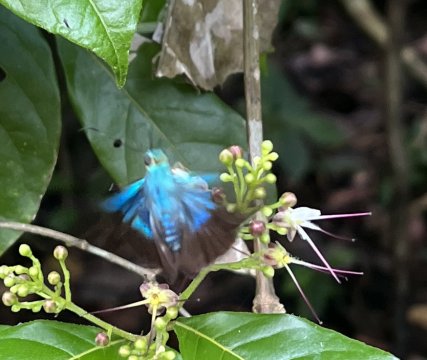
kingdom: Animalia
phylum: Arthropoda
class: Insecta
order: Lepidoptera
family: Hesperiidae
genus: Astraptes
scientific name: Astraptes alector
